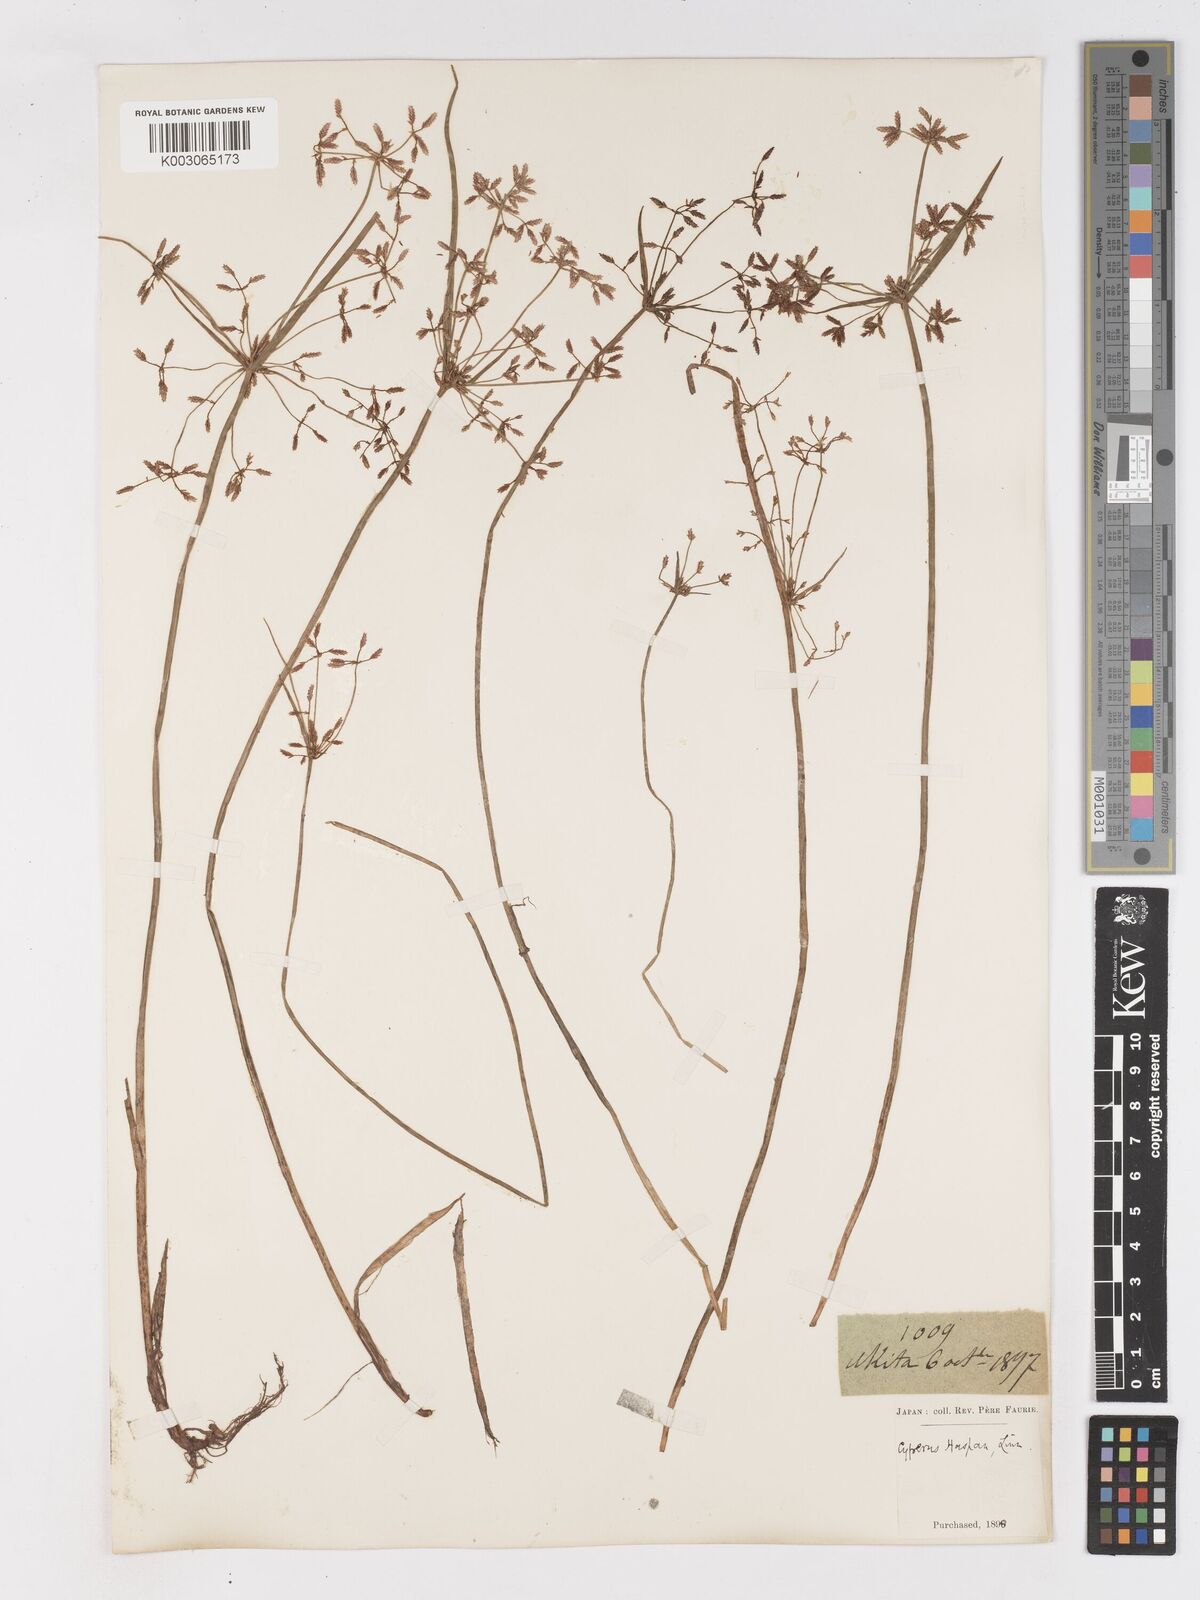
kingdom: Plantae
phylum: Tracheophyta
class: Liliopsida
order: Poales
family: Cyperaceae
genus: Cyperus
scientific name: Cyperus haspan
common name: Haspan flatsedge
